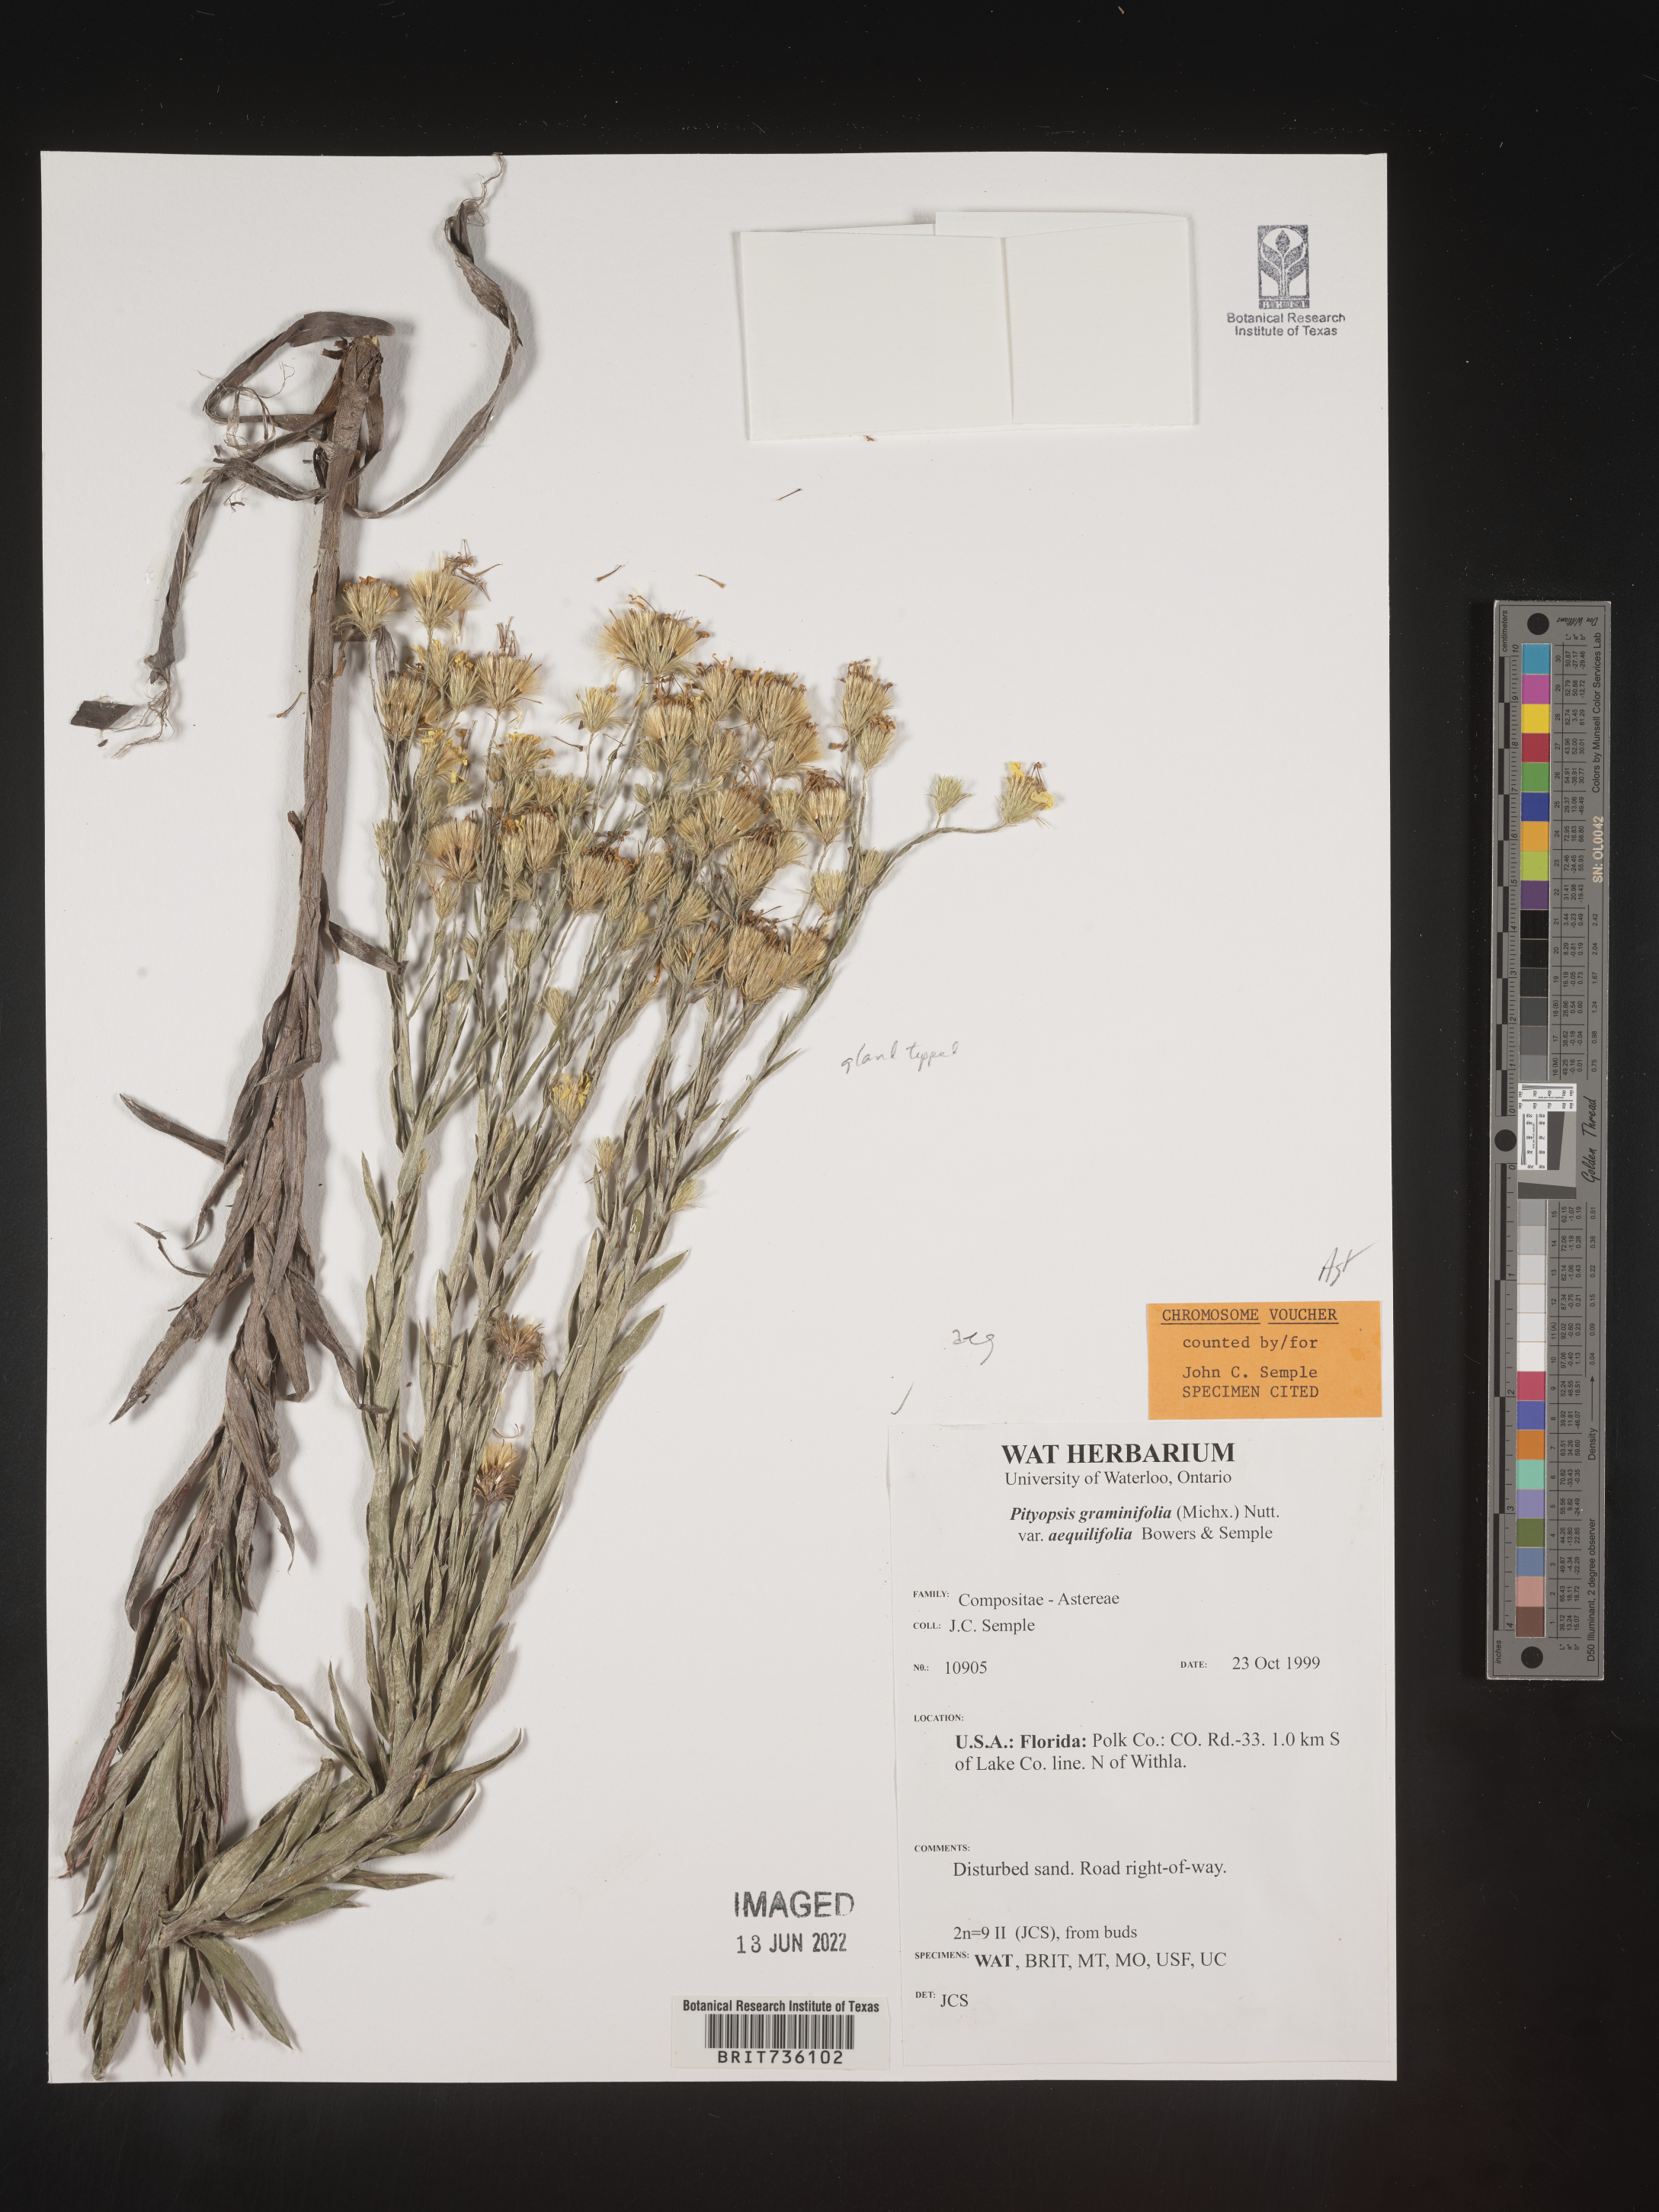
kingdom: Plantae
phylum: Tracheophyta
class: Magnoliopsida
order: Asterales
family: Asteraceae
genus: Pityopsis
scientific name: Pityopsis aequilifolia
